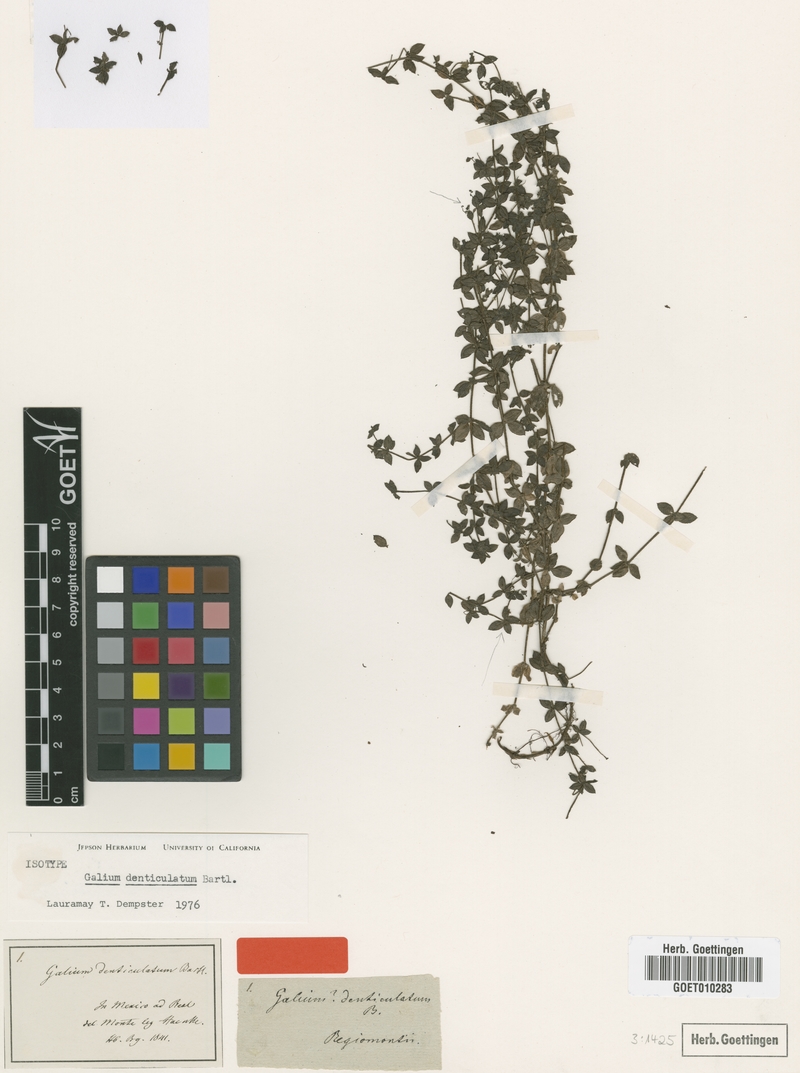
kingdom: Plantae
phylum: Tracheophyta
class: Magnoliopsida
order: Gentianales
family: Rubiaceae
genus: Galium
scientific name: Galium denticulatum
